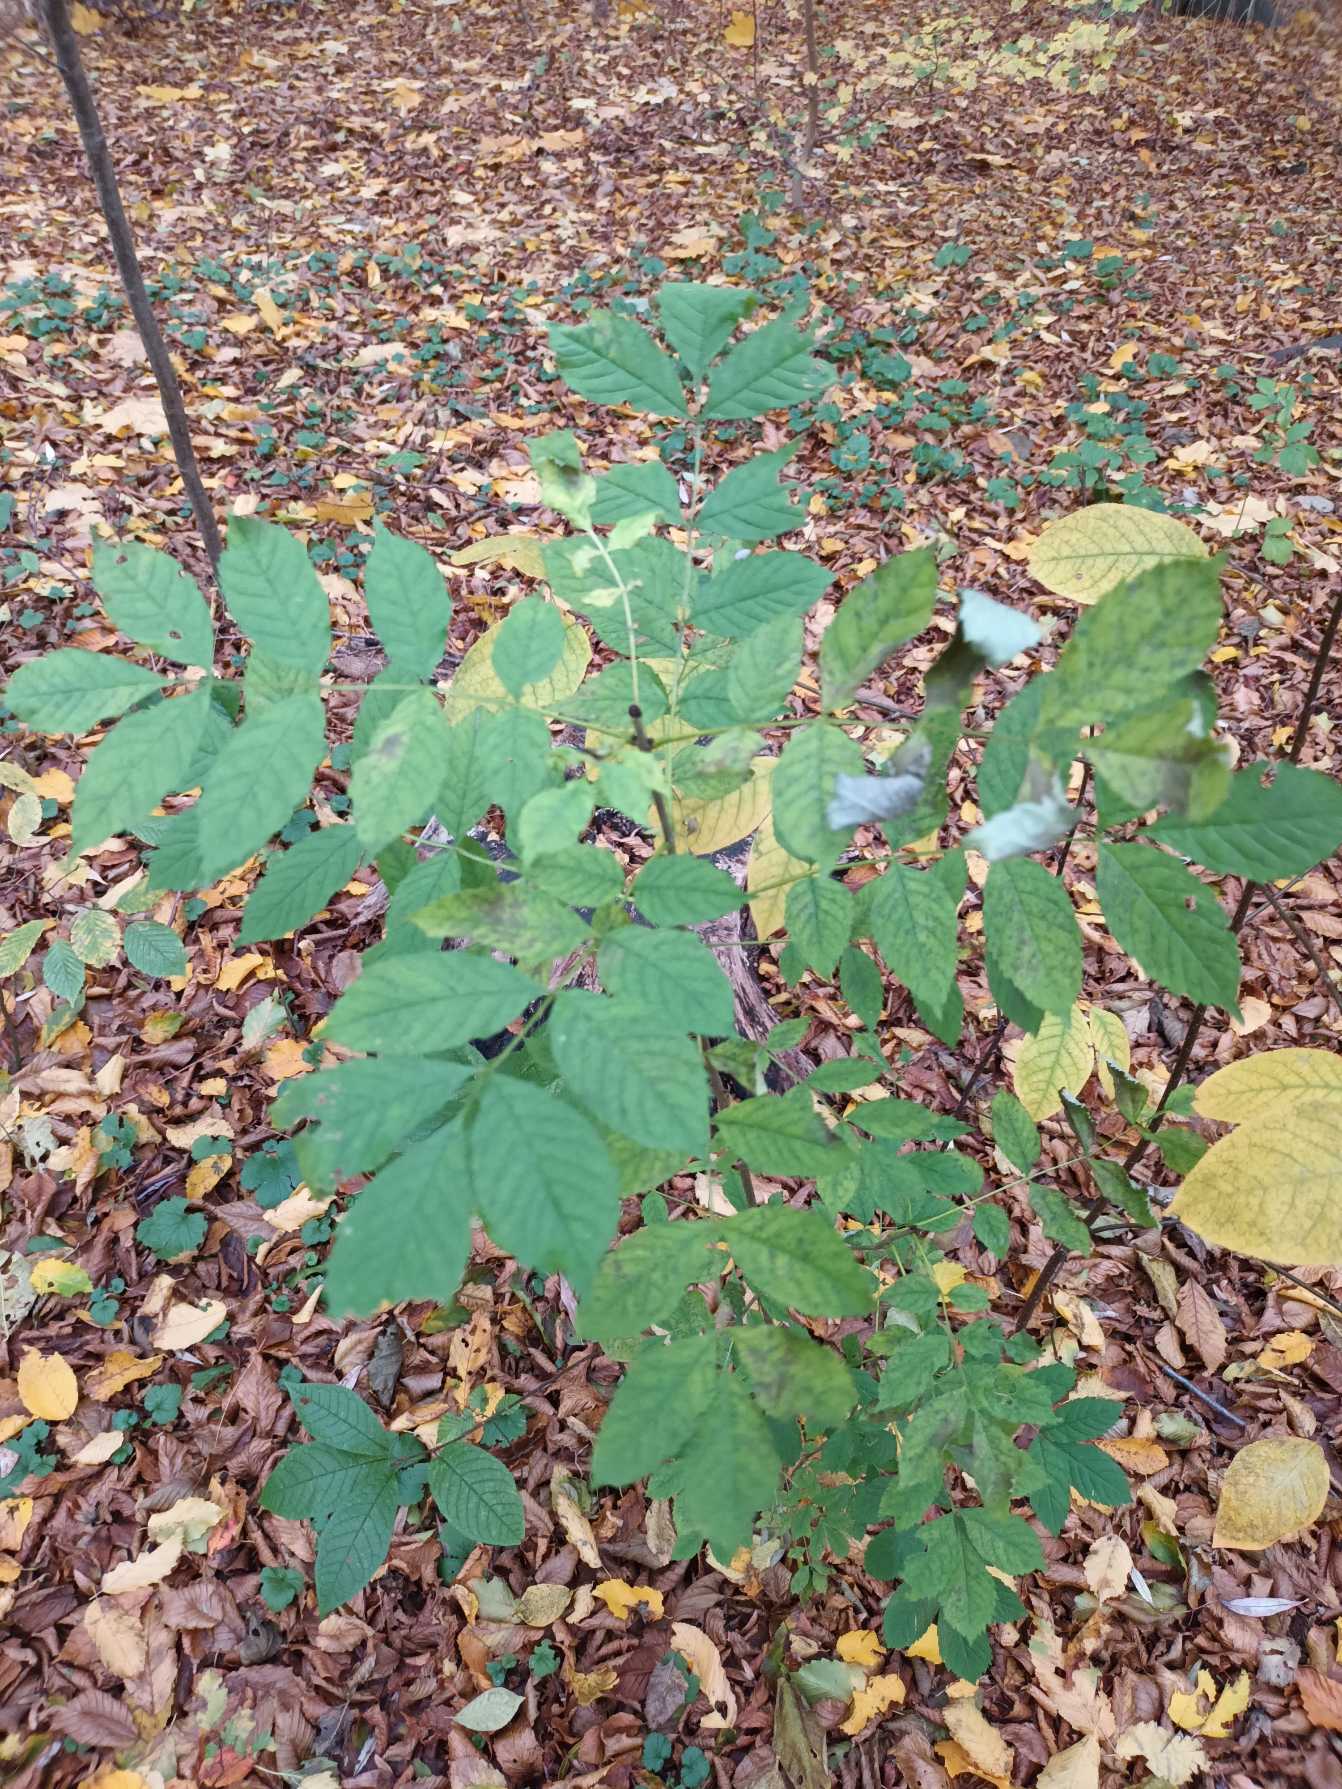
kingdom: Plantae
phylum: Tracheophyta
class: Magnoliopsida
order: Lamiales
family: Oleaceae
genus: Fraxinus
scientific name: Fraxinus excelsior
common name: Ask
